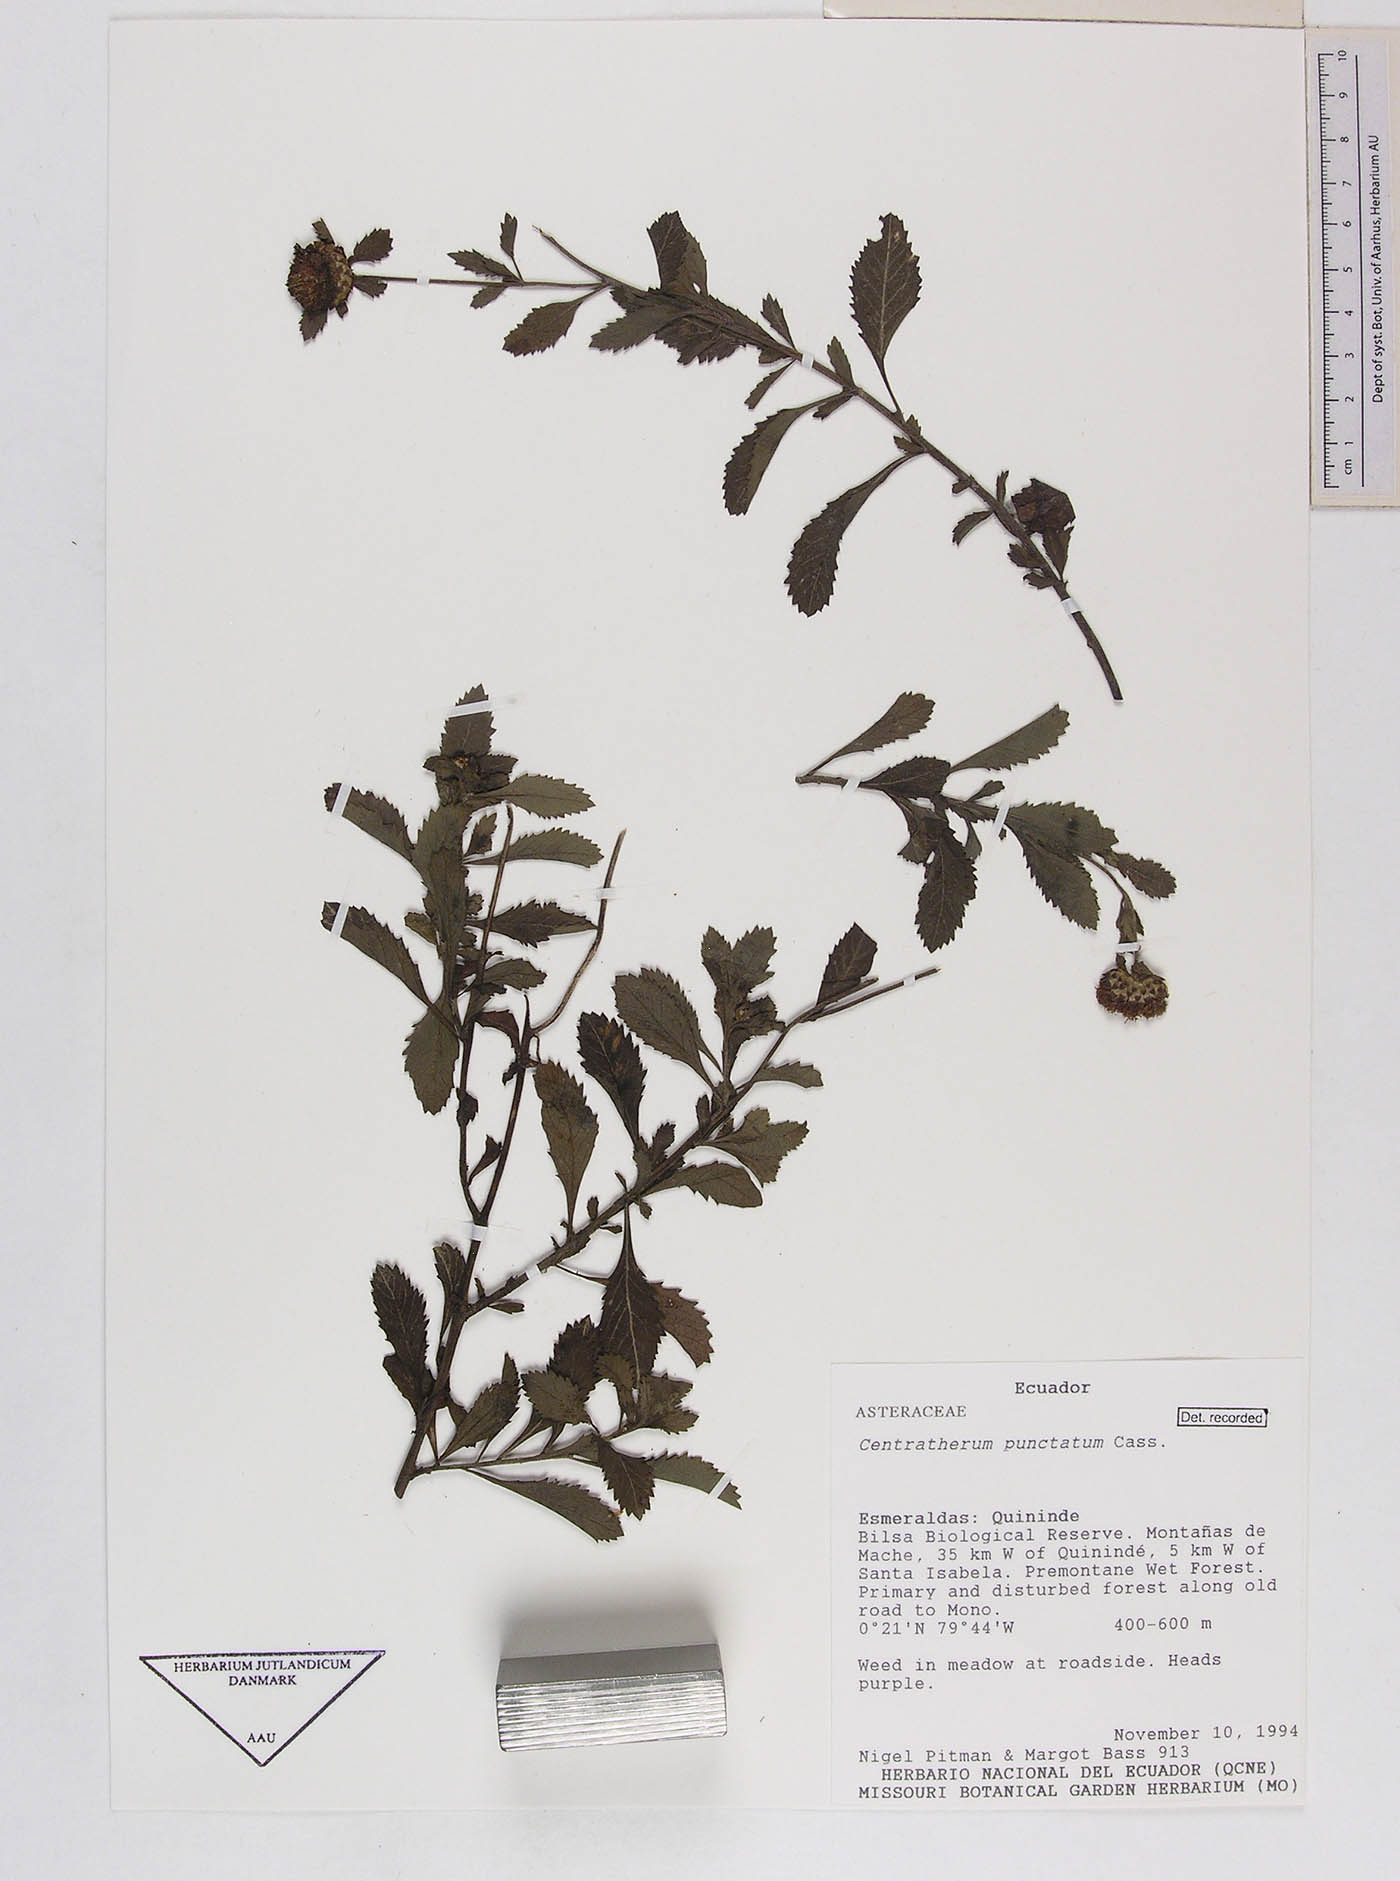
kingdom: Plantae
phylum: Tracheophyta
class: Magnoliopsida
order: Asterales
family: Asteraceae
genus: Centratherum
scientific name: Centratherum punctatum
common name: Larkdaisy
